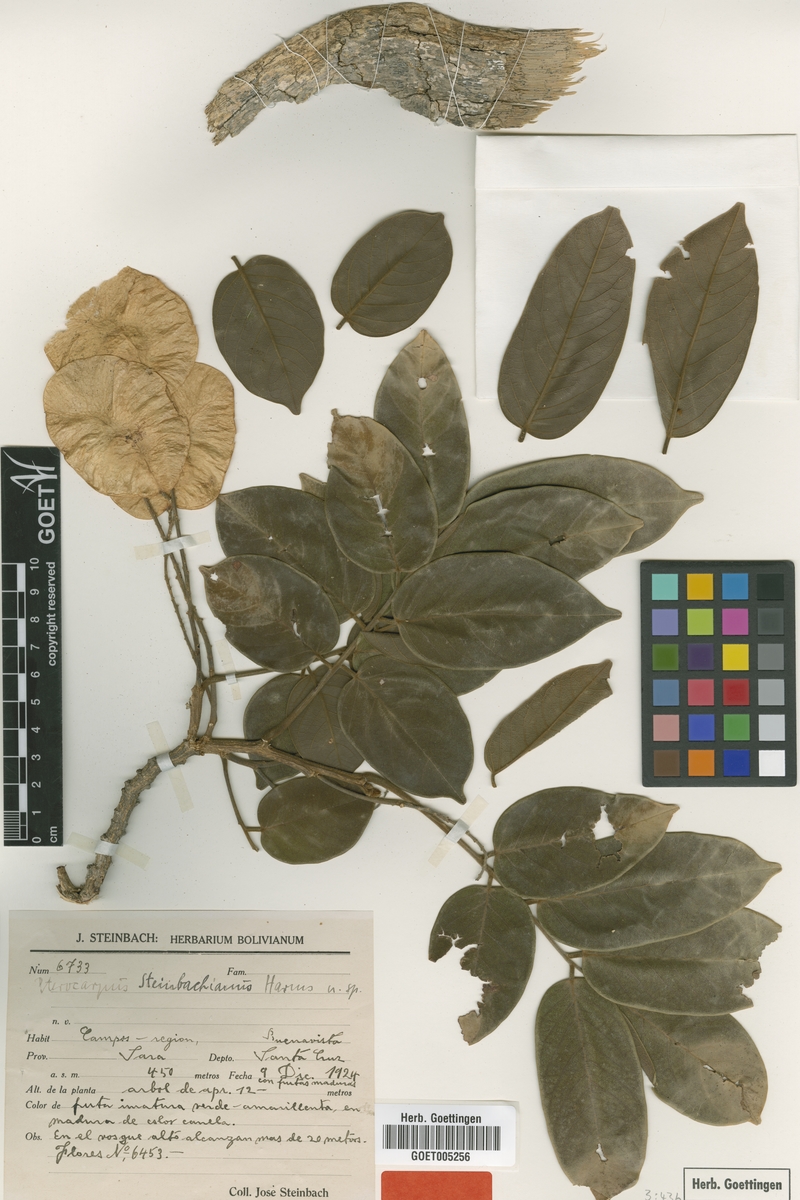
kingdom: Plantae
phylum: Tracheophyta
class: Magnoliopsida
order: Fabales
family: Fabaceae
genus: Pterocarpus
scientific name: Pterocarpus steinbachianus
